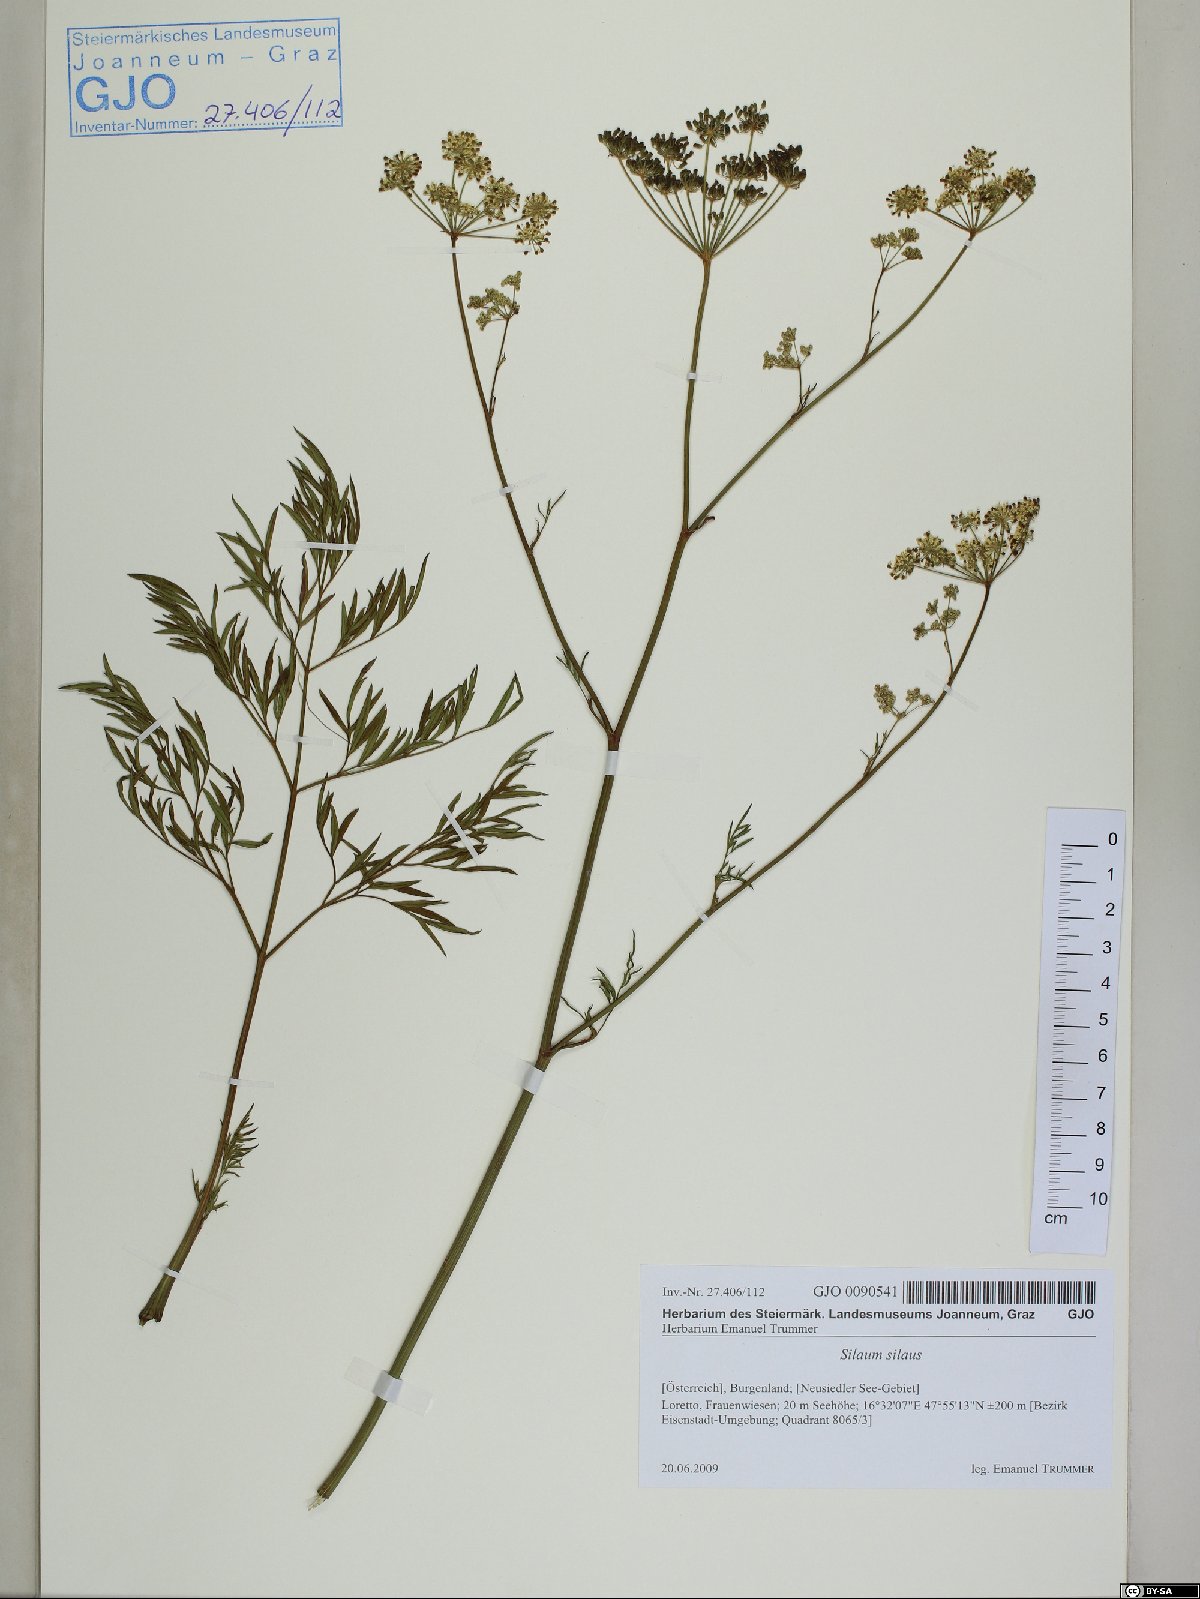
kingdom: Plantae
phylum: Tracheophyta
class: Magnoliopsida
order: Apiales
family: Apiaceae
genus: Silaum
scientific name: Silaum silaus
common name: Pepper-saxifrage
